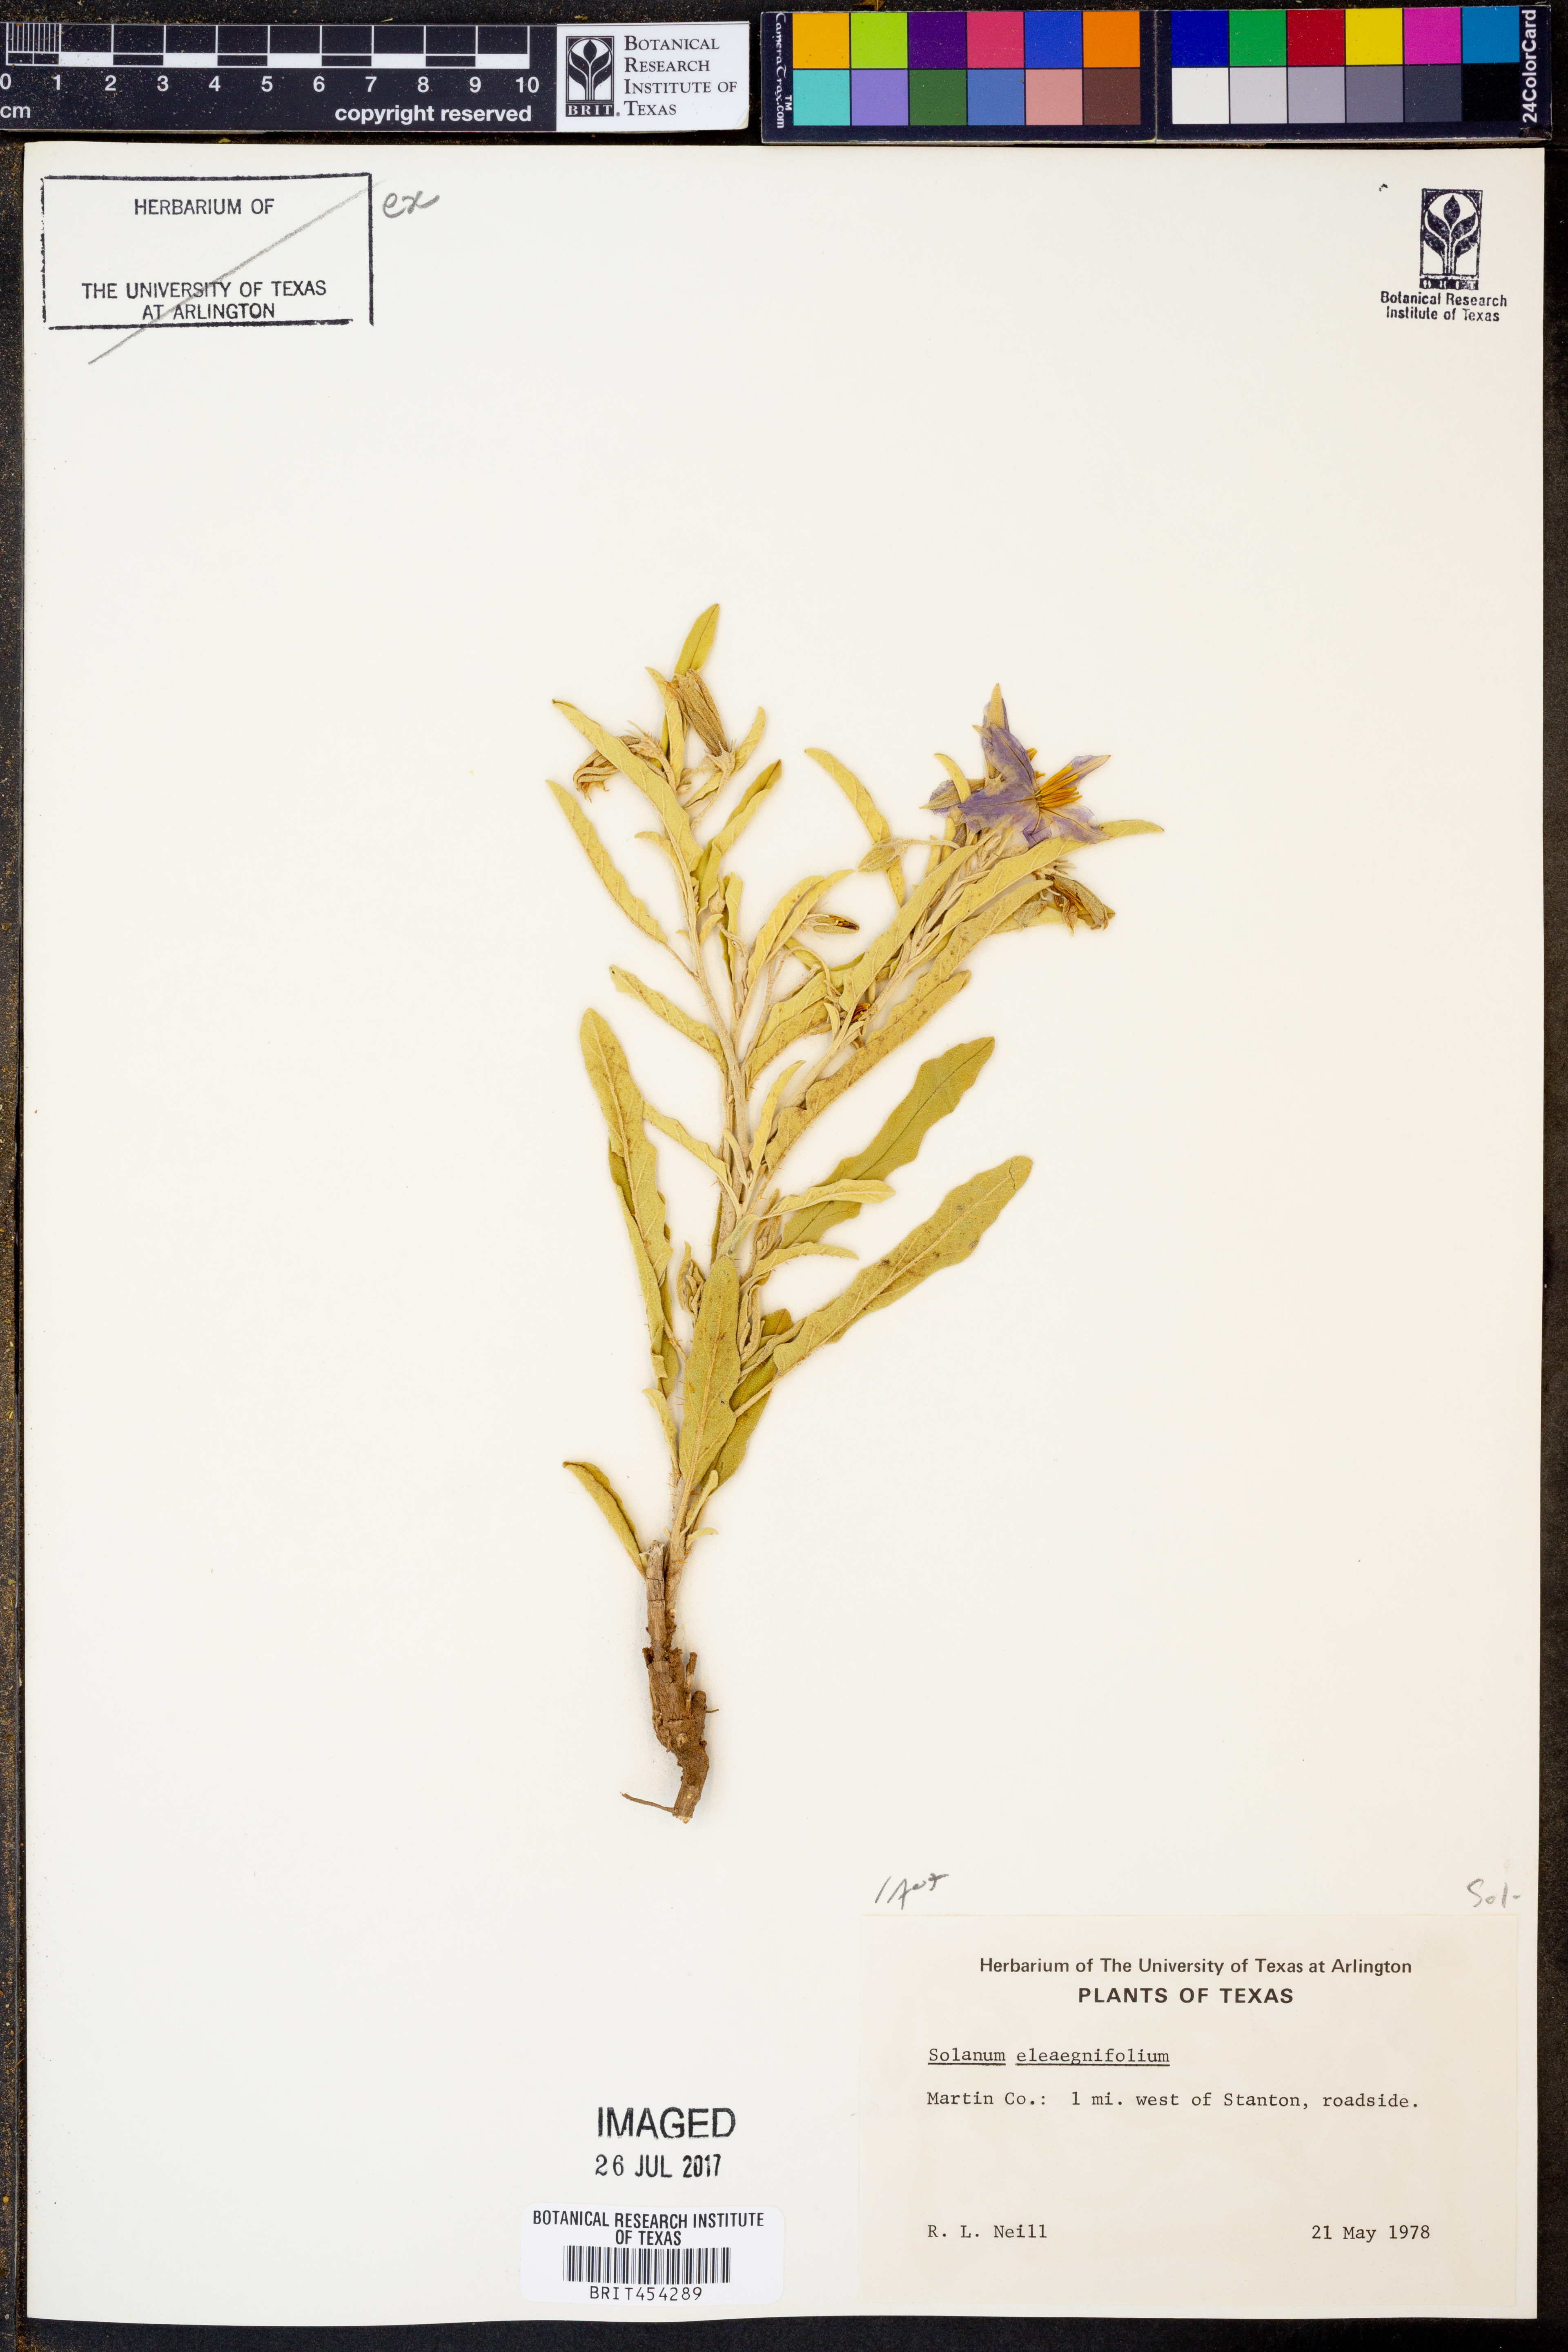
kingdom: Plantae
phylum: Tracheophyta
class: Magnoliopsida
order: Solanales
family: Solanaceae
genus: Solanum
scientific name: Solanum elaeagnifolium
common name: Silverleaf nightshade
